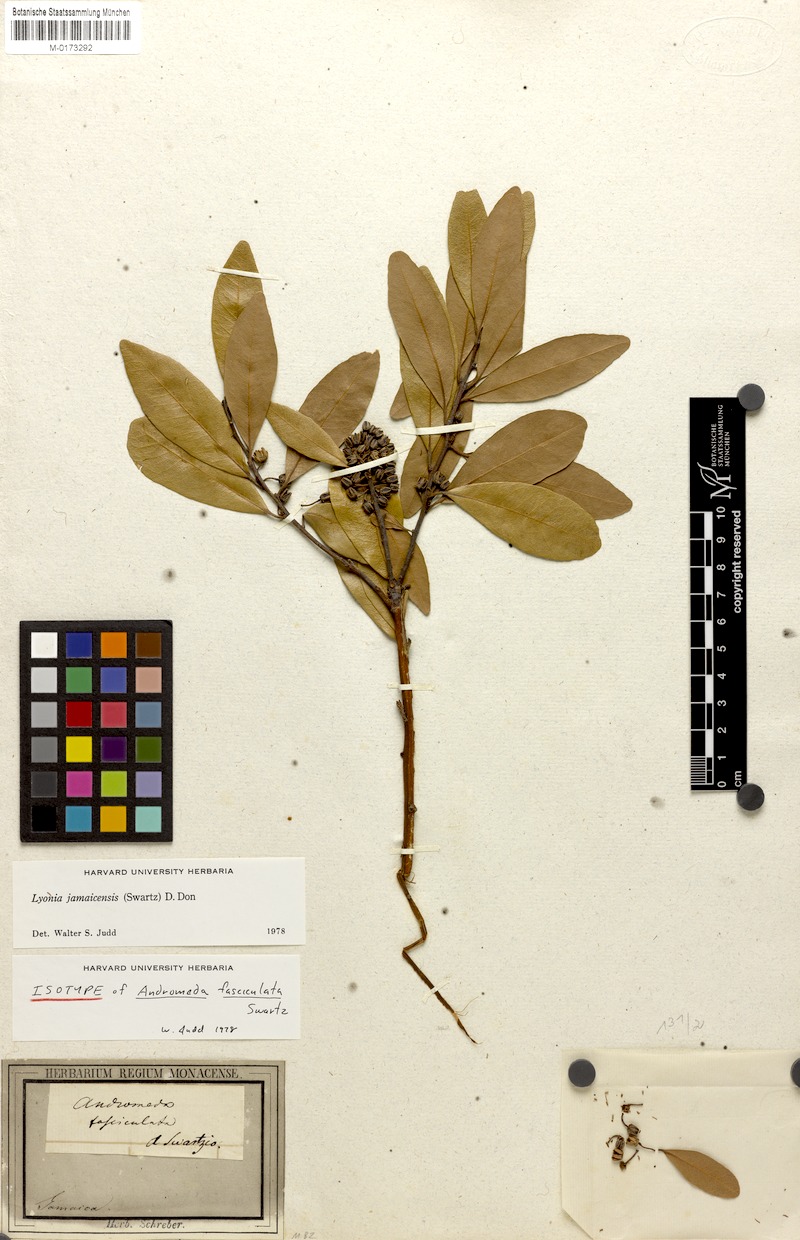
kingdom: Plantae
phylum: Tracheophyta
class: Magnoliopsida
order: Ericales
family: Ericaceae
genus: Lyonia
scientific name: Lyonia jamaicensis
